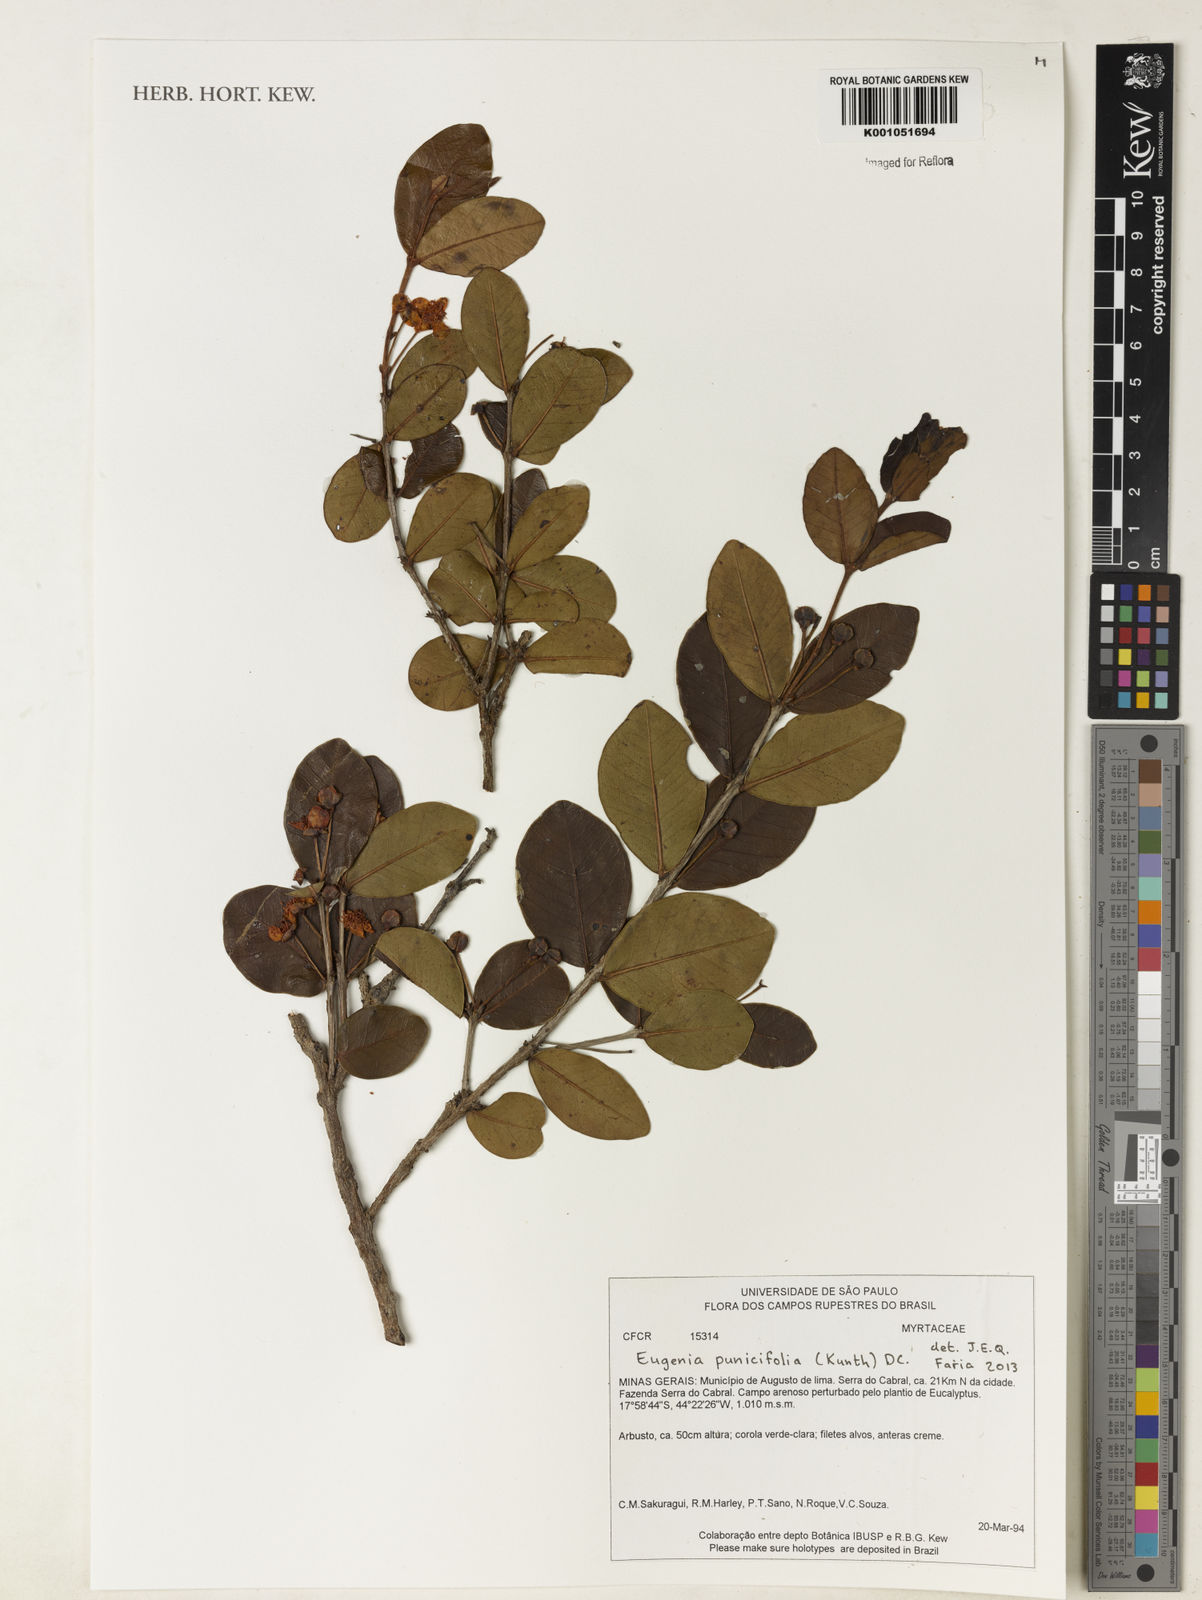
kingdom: Plantae
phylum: Tracheophyta
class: Magnoliopsida
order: Myrtales
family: Myrtaceae
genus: Eugenia
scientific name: Eugenia punicifolia
